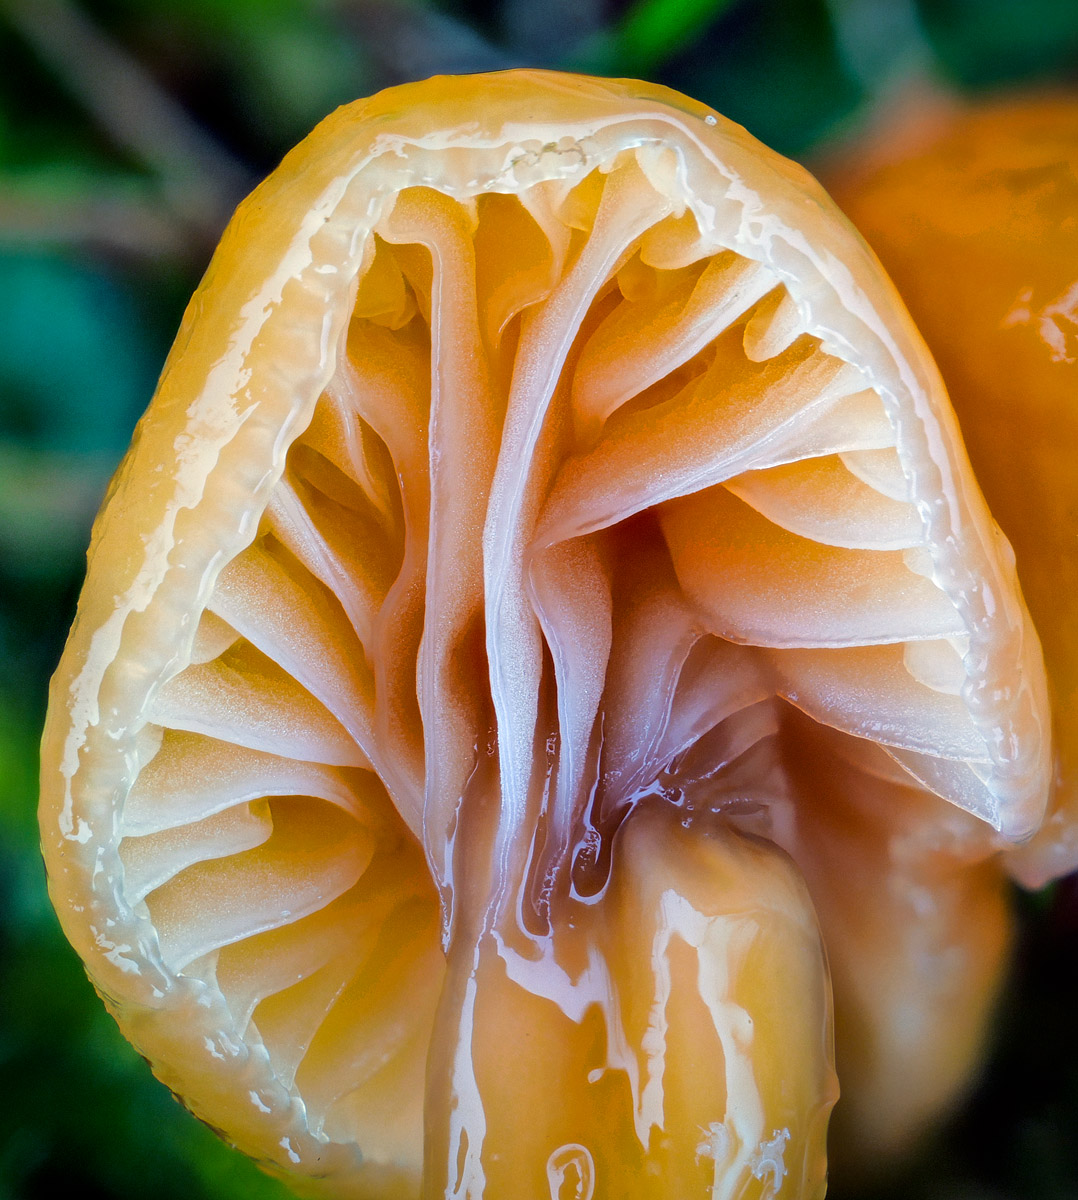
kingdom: Fungi
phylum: Basidiomycota
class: Agaricomycetes
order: Agaricales
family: Hygrophoraceae
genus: Gliophorus
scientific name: Gliophorus laetus
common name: brusk-vokshat
